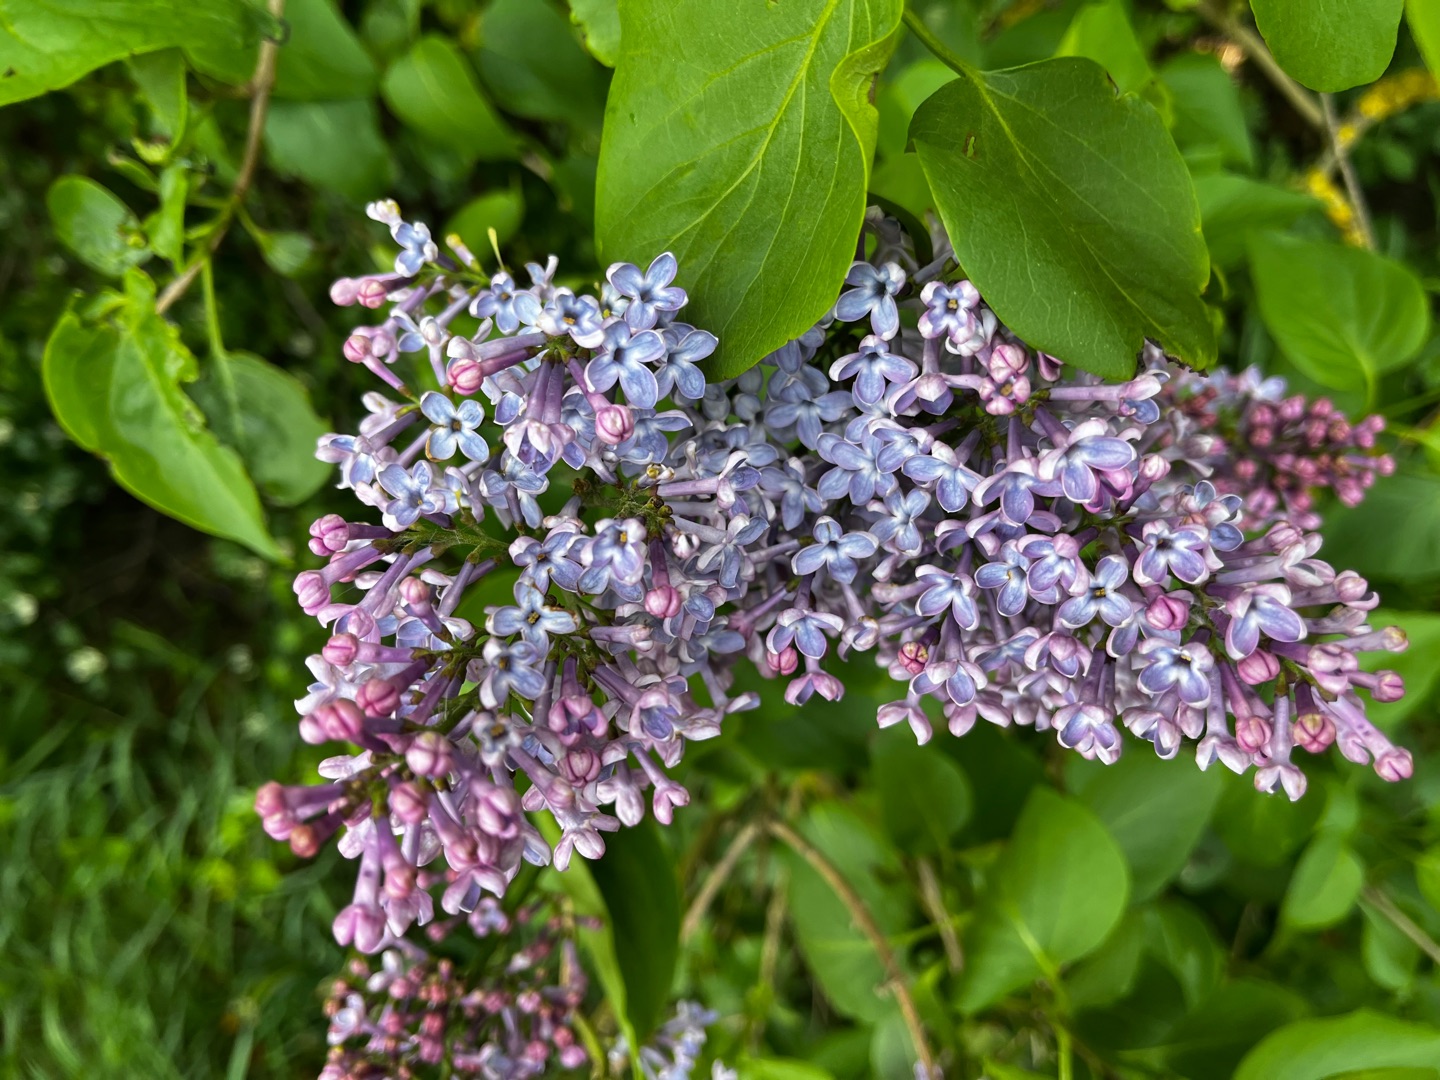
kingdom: Plantae
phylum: Tracheophyta
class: Magnoliopsida
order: Lamiales
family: Oleaceae
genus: Syringa
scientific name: Syringa vulgaris
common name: Syren
